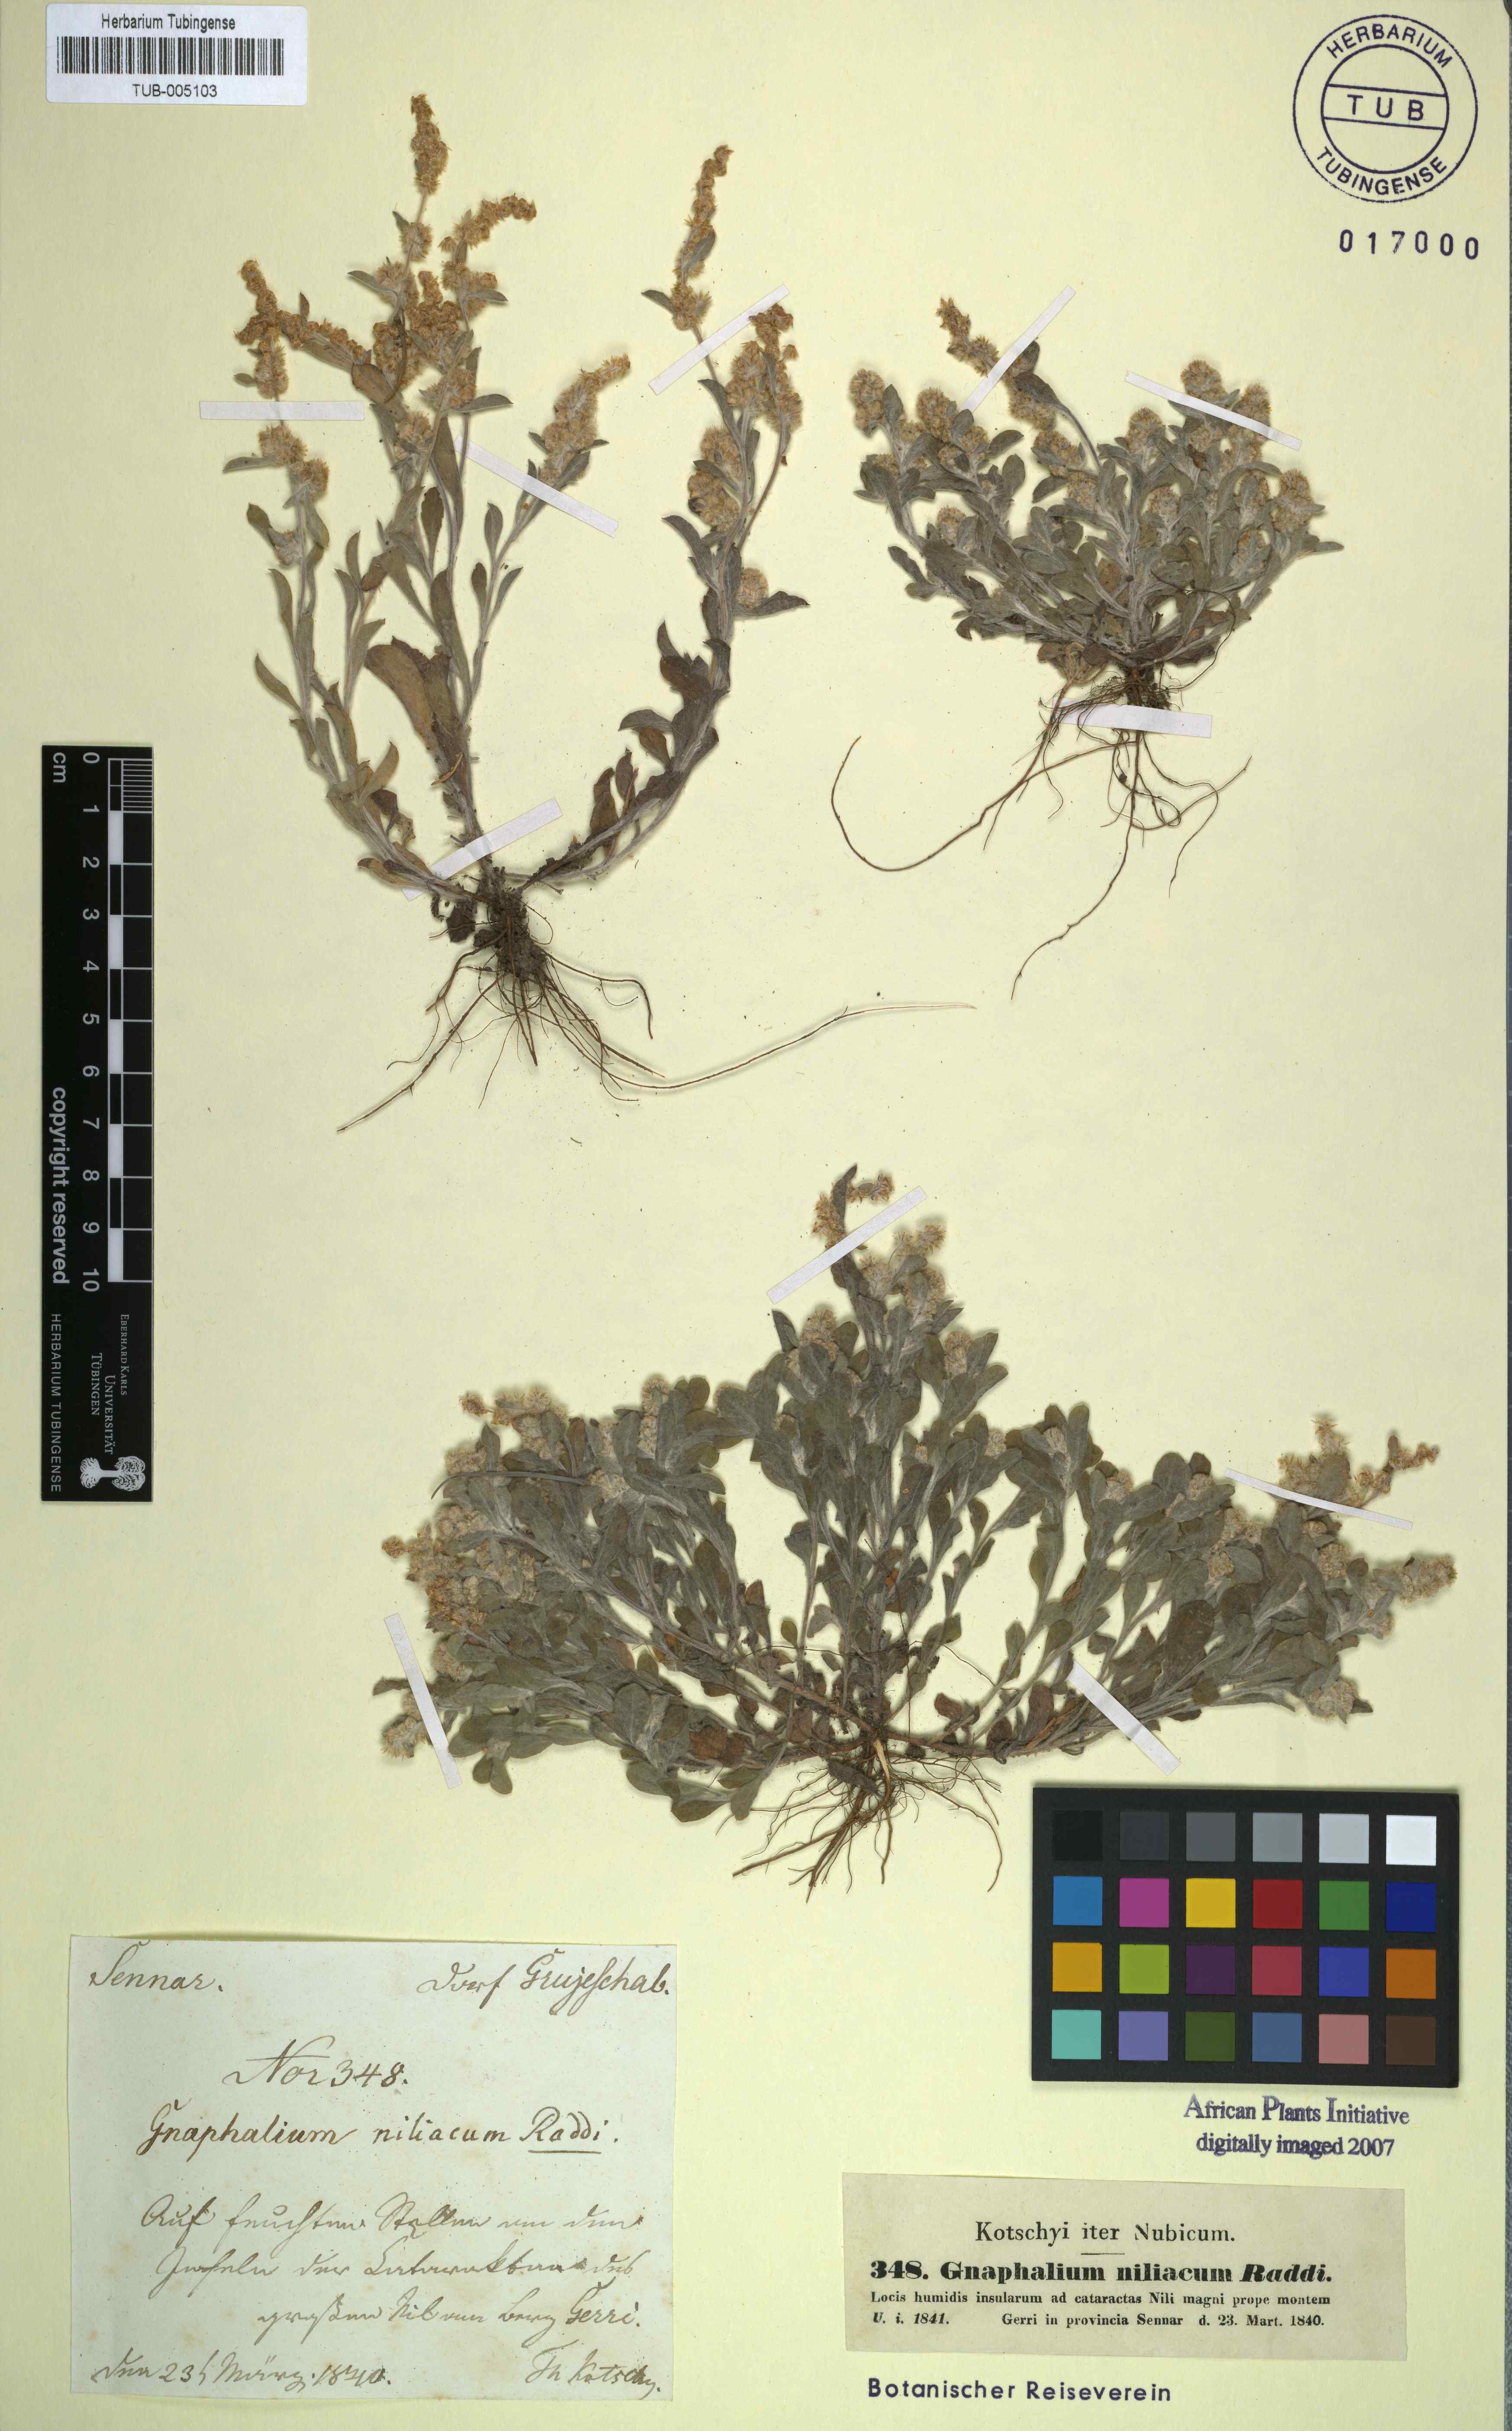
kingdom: Plantae
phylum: Tracheophyta
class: Magnoliopsida
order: Asterales
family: Asteraceae
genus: Helichrysum
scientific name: Helichrysum indicum
